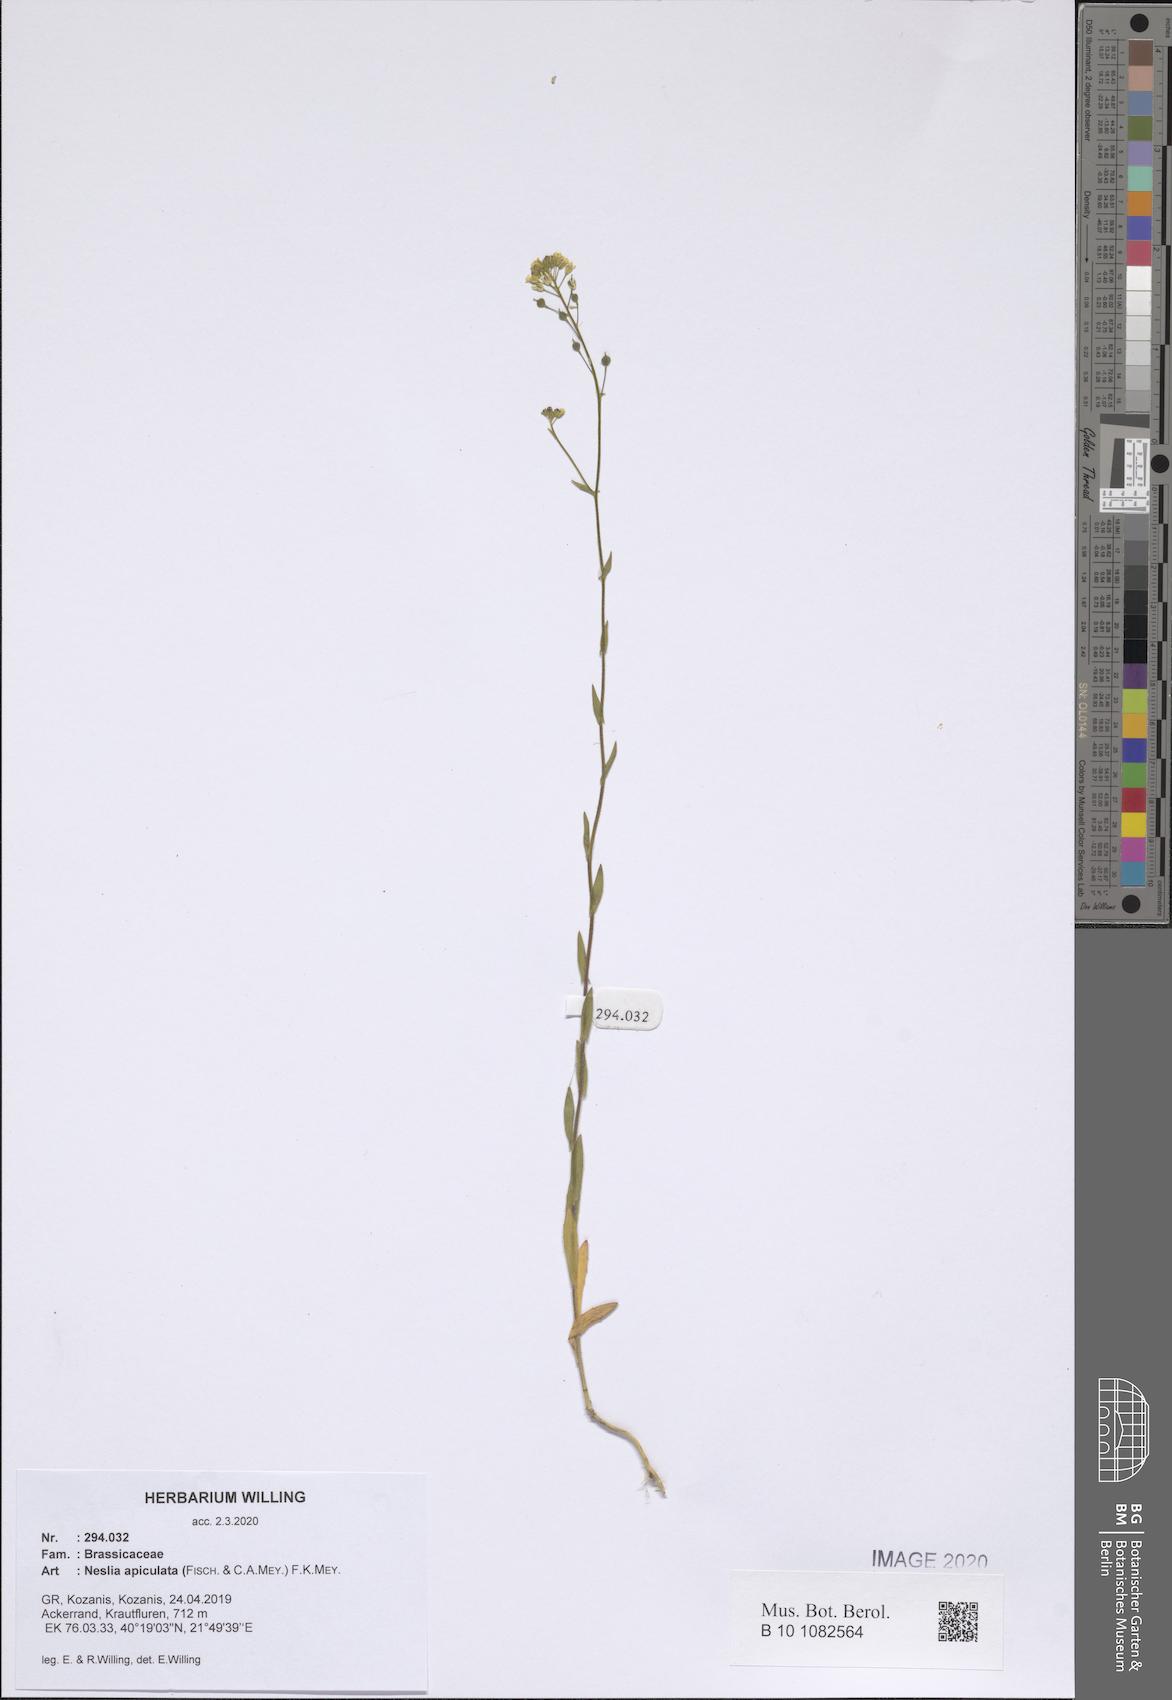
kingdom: Plantae
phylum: Tracheophyta
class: Magnoliopsida
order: Brassicales
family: Brassicaceae
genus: Neslia
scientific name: Neslia paniculata
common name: Ball mustard
